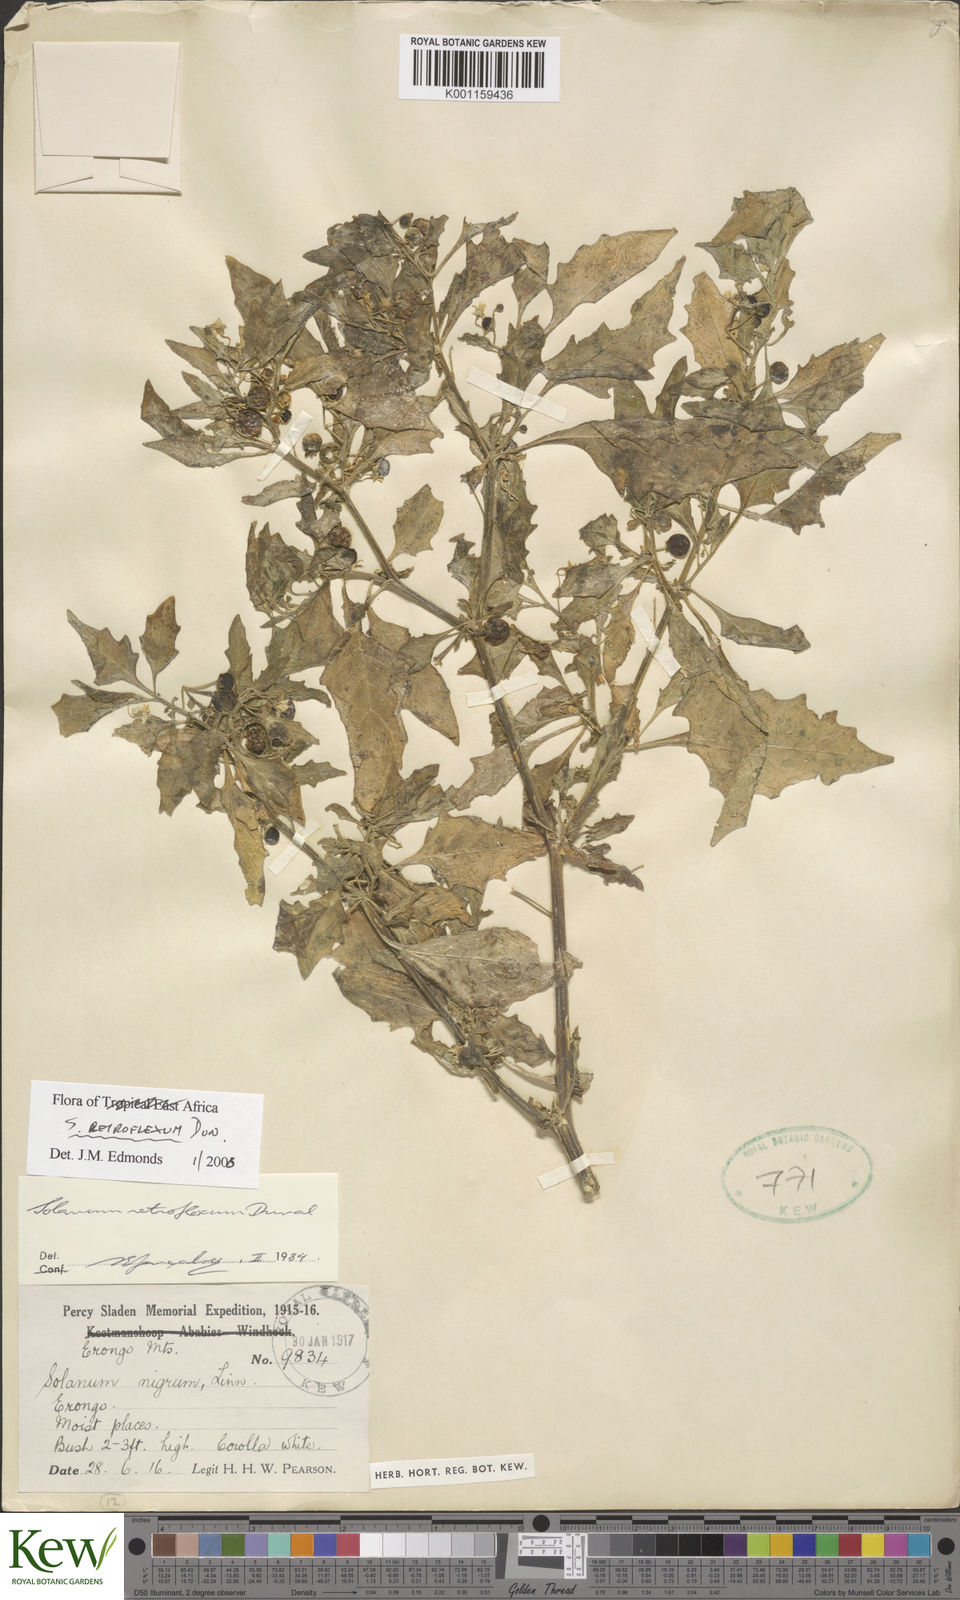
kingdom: Plantae
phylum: Tracheophyta
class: Magnoliopsida
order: Solanales
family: Solanaceae
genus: Solanum
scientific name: Solanum retroflexum
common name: Wonderberry
